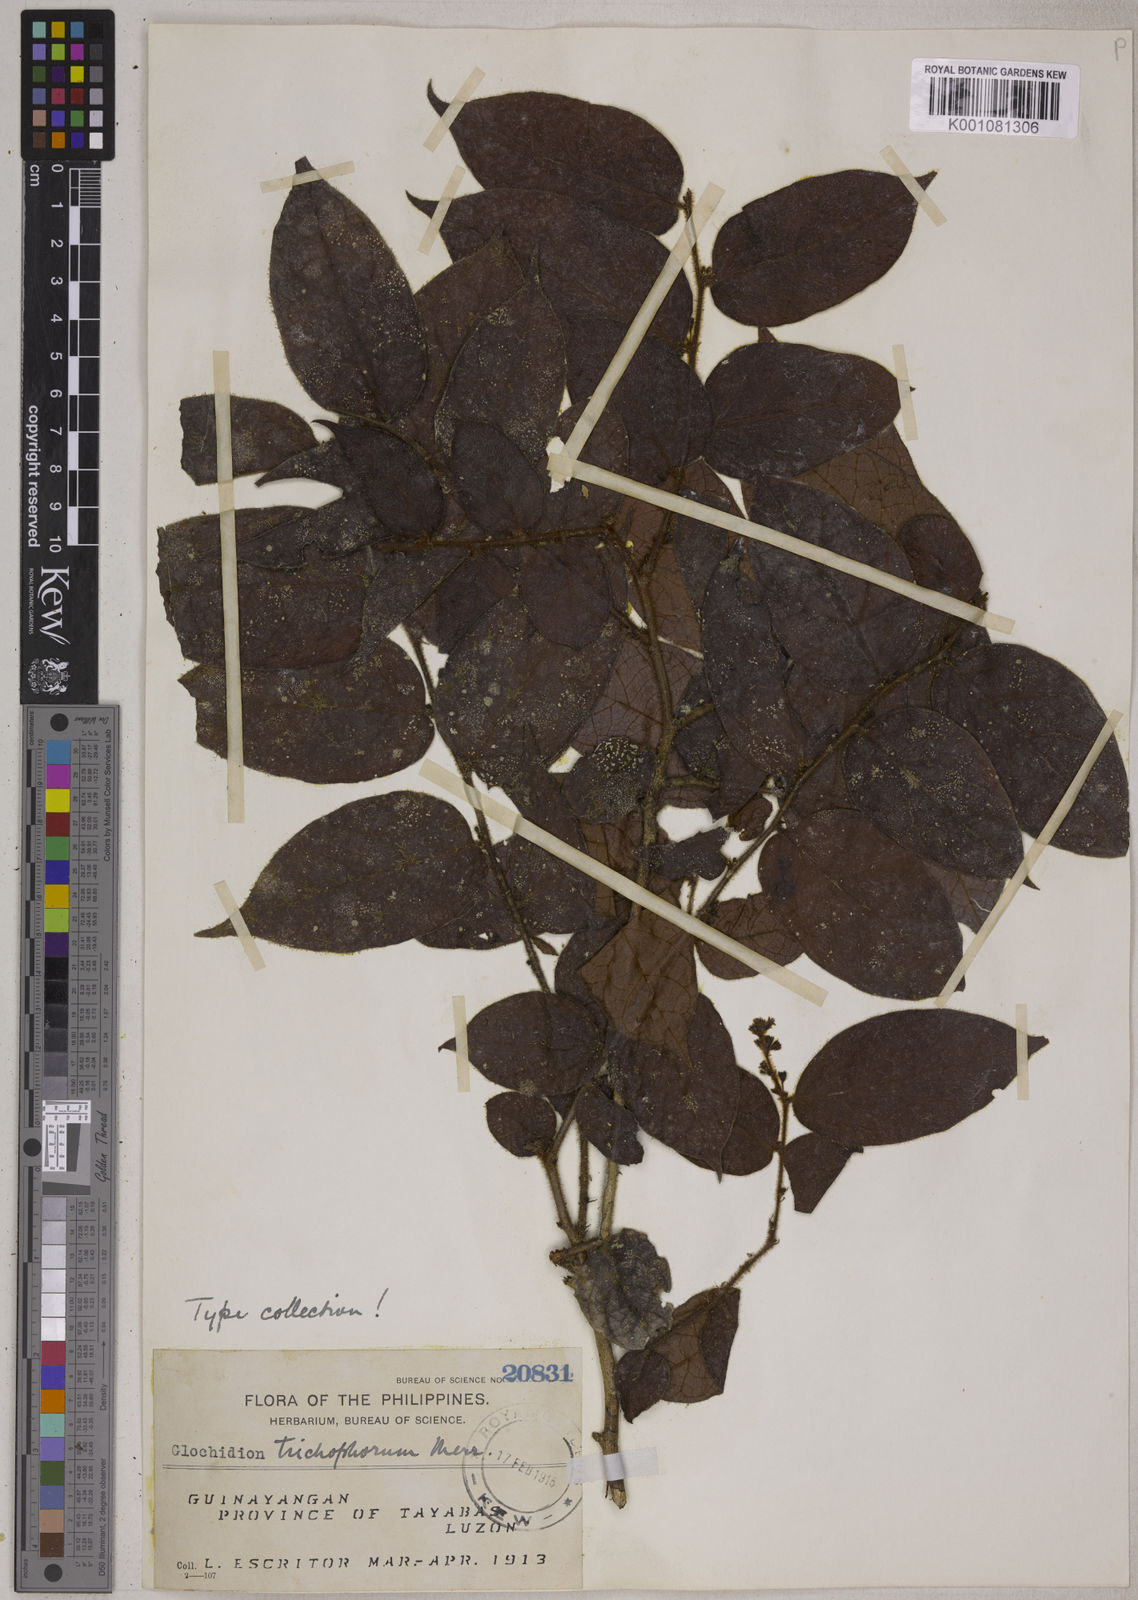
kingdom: Plantae
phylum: Tracheophyta
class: Magnoliopsida
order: Malpighiales
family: Phyllanthaceae
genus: Glochidion
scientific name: Glochidion trichophorum
